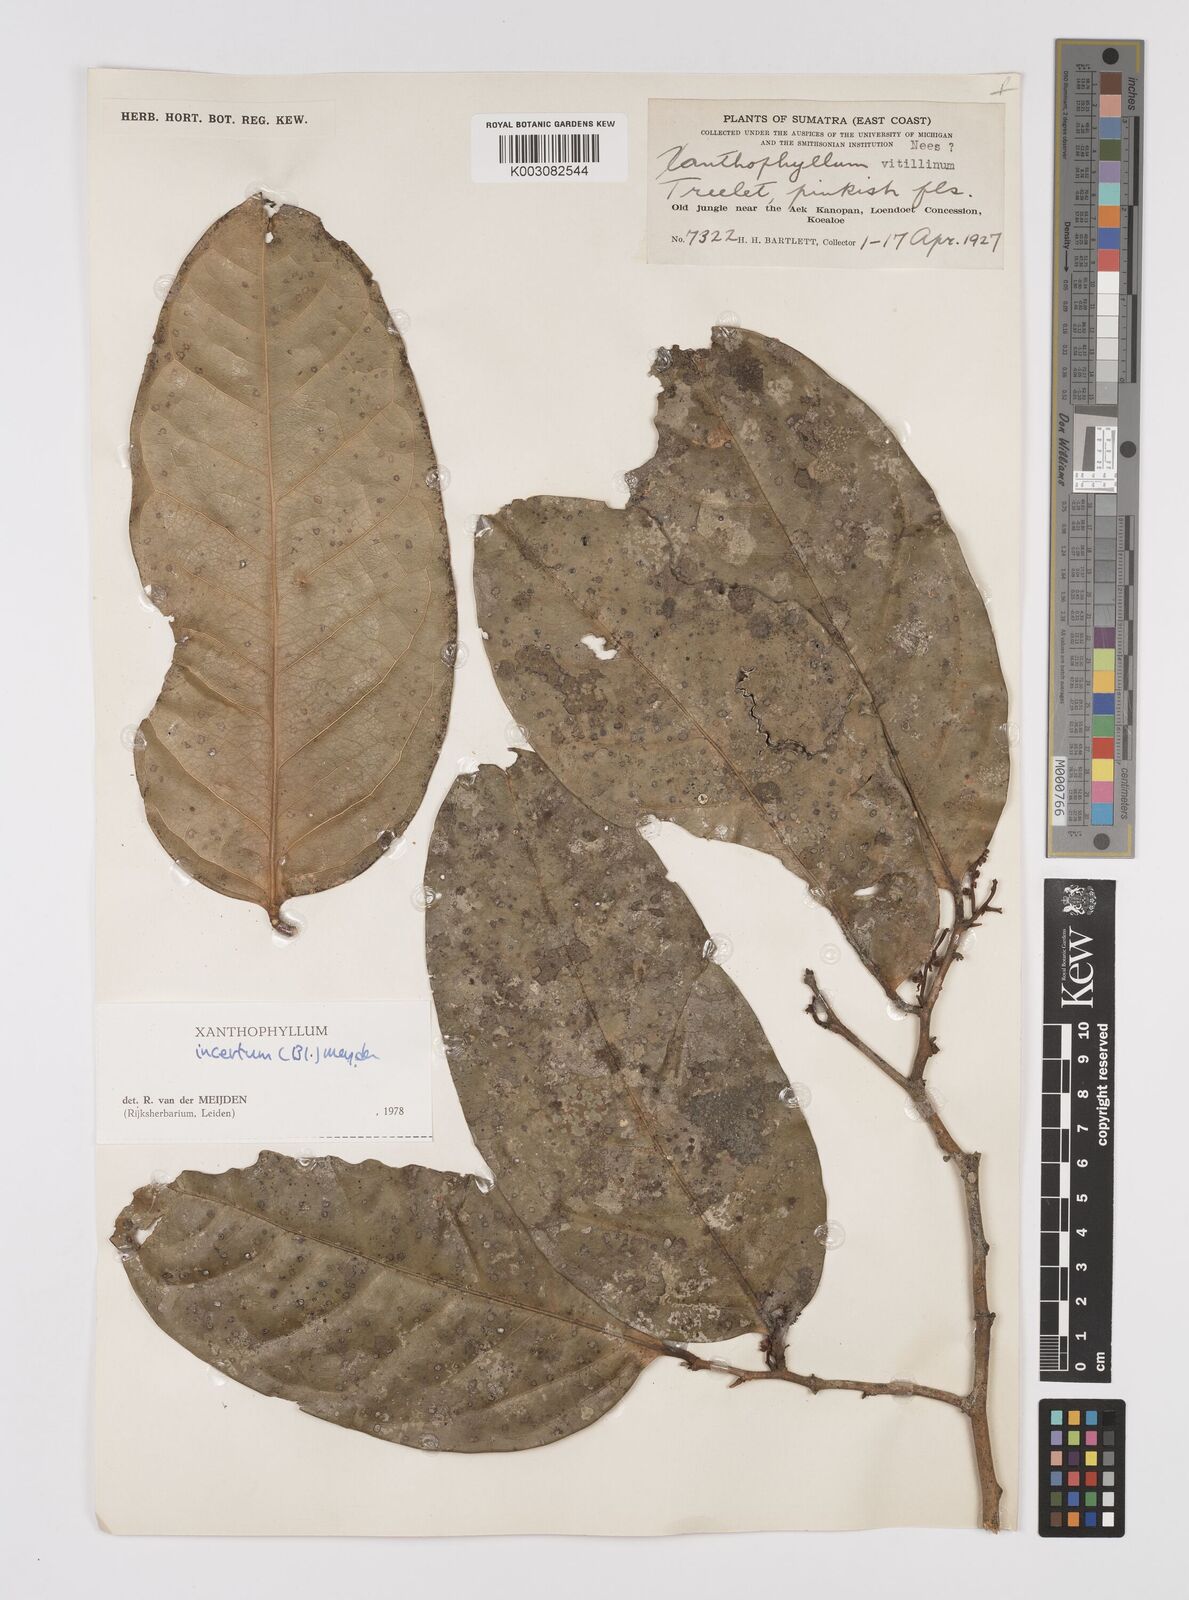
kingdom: Plantae
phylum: Tracheophyta
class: Magnoliopsida
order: Fabales
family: Polygalaceae
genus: Xanthophyllum
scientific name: Xanthophyllum vitellinum
